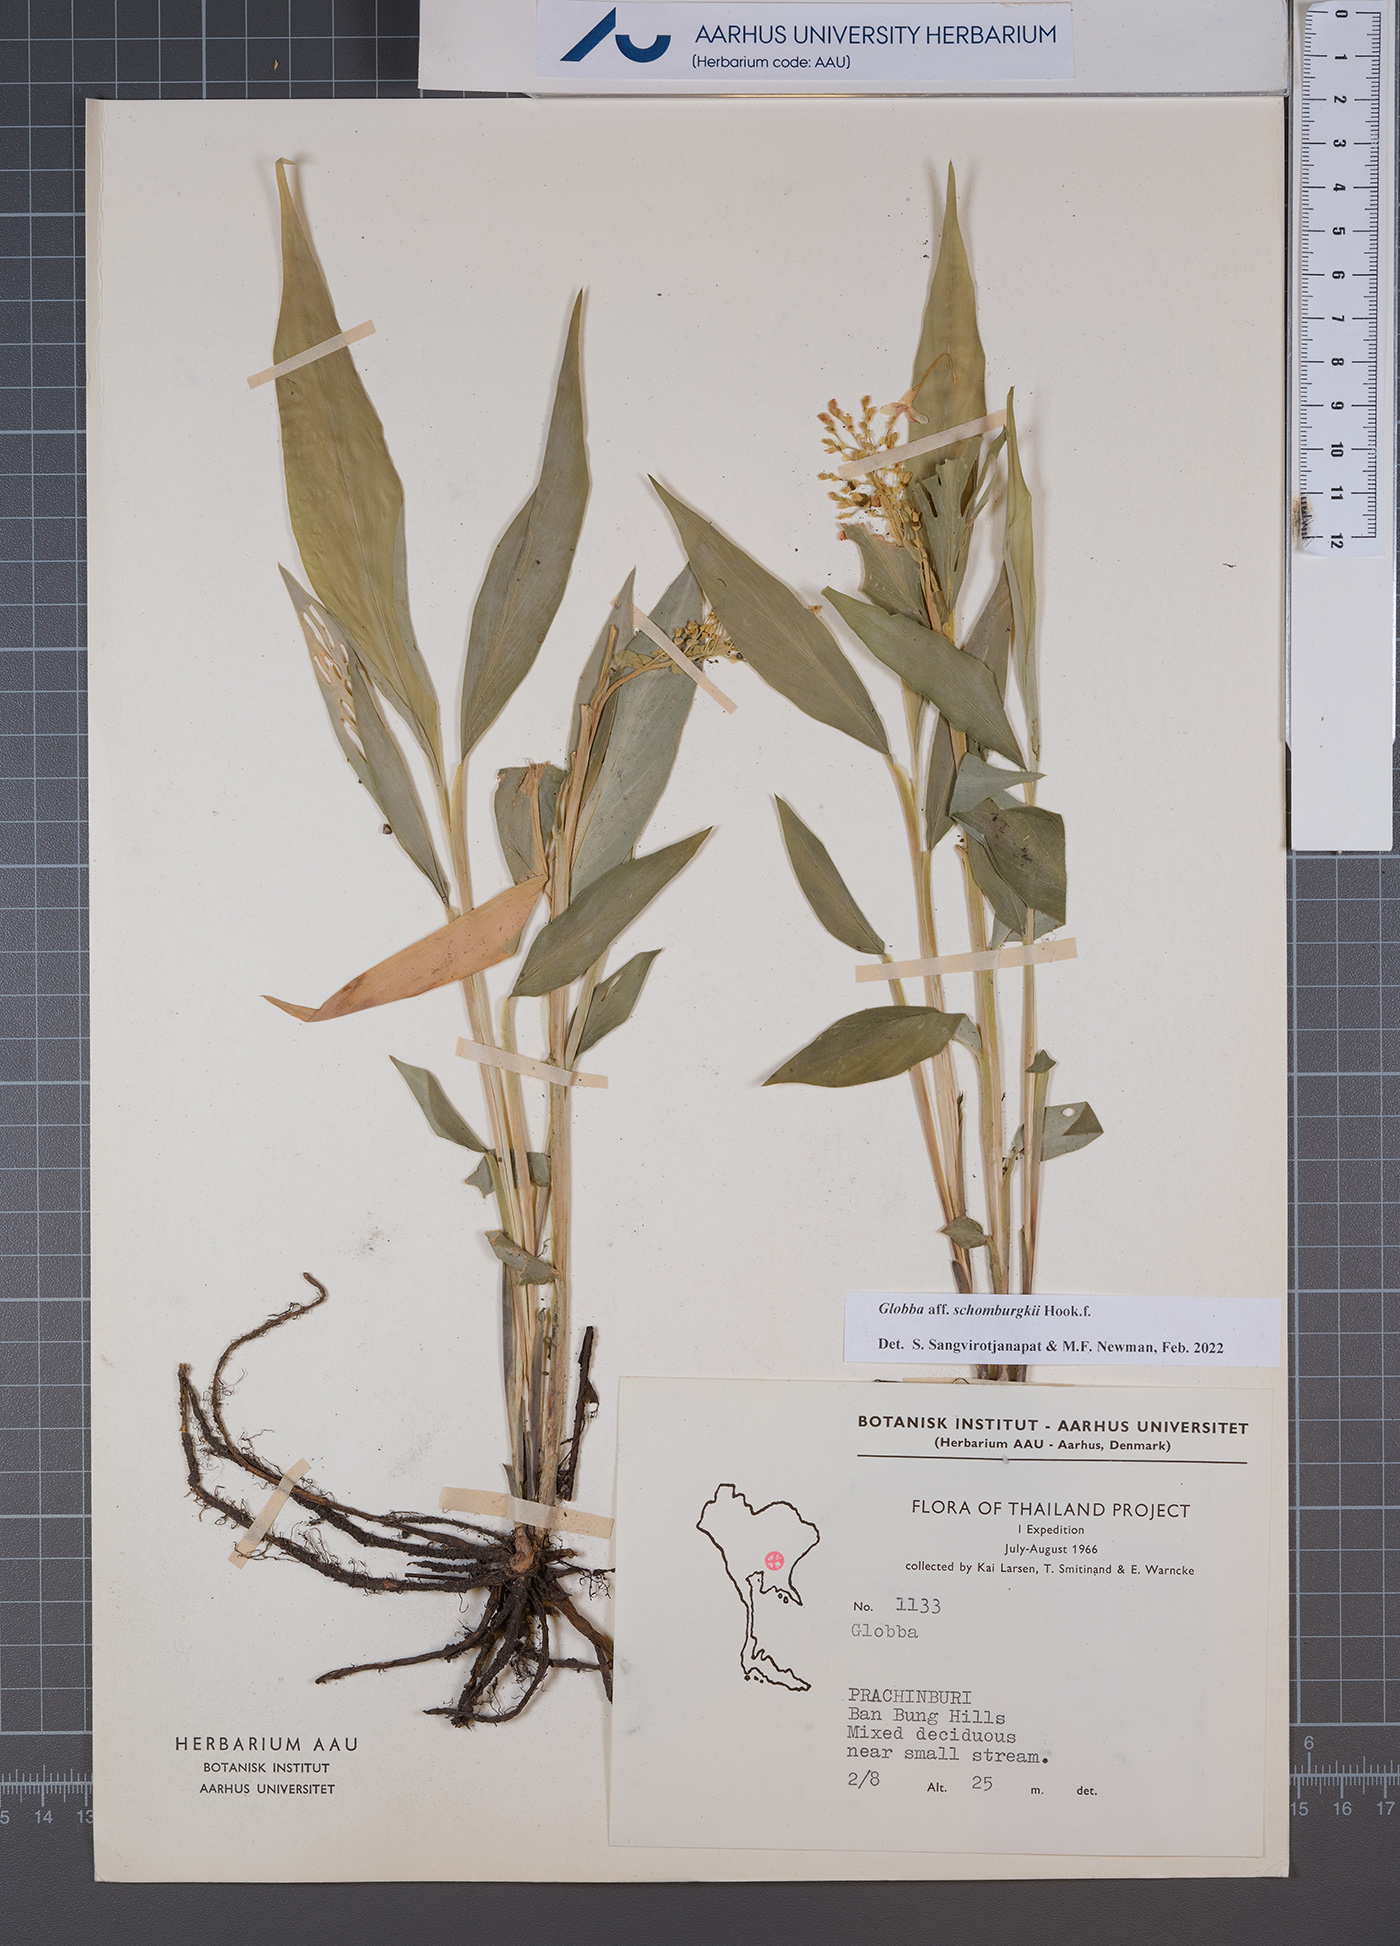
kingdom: Plantae
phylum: Tracheophyta
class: Liliopsida
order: Zingiberales
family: Zingiberaceae
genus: Globba
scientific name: Globba schomburgkii
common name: Dancing girl ginger
